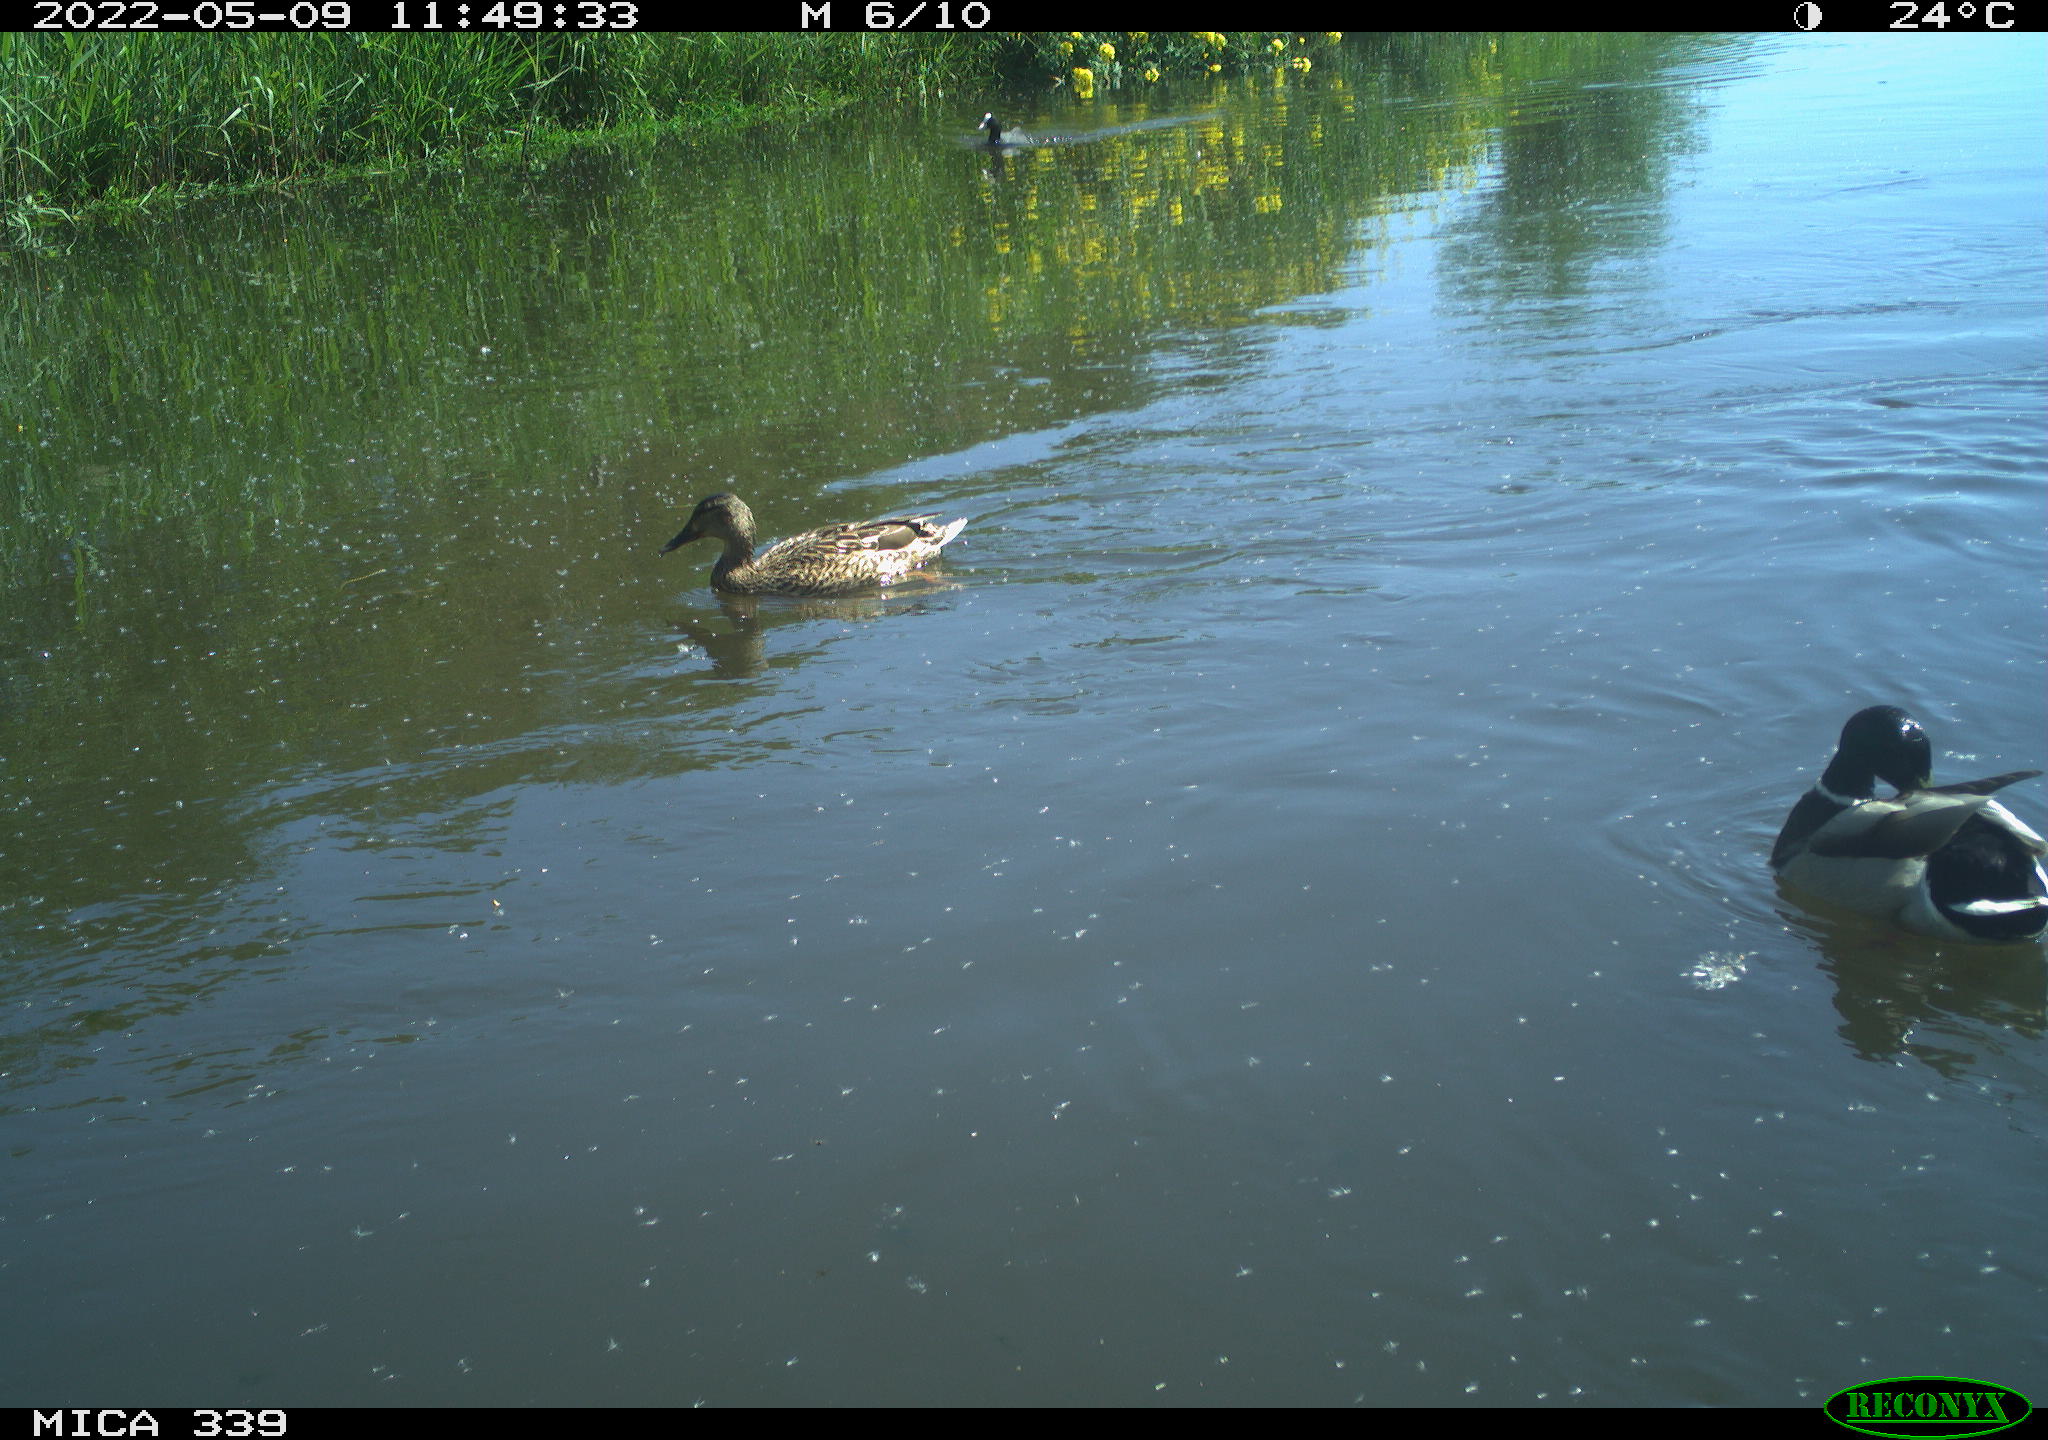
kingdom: Animalia
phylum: Chordata
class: Aves
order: Anseriformes
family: Anatidae
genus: Mareca
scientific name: Mareca strepera
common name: Gadwall
